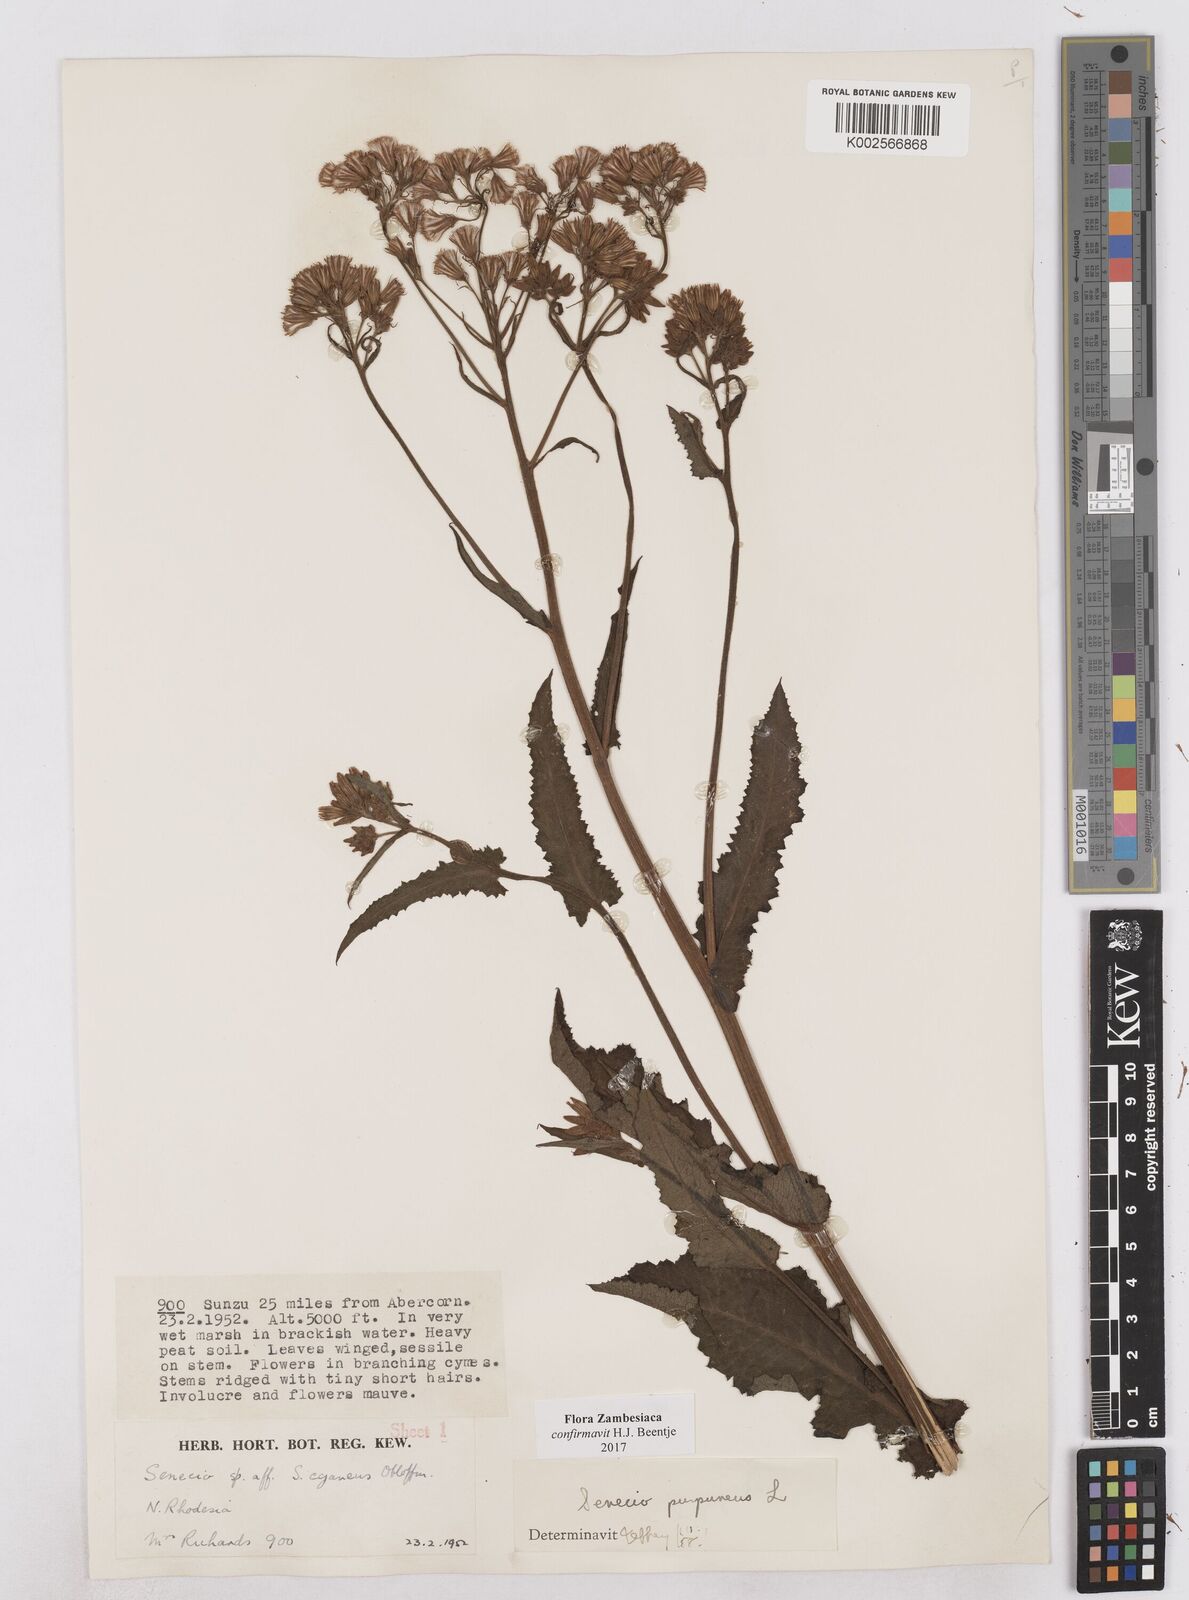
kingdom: Plantae
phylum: Tracheophyta
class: Magnoliopsida
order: Asterales
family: Asteraceae
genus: Senecio
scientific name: Senecio purpureus
